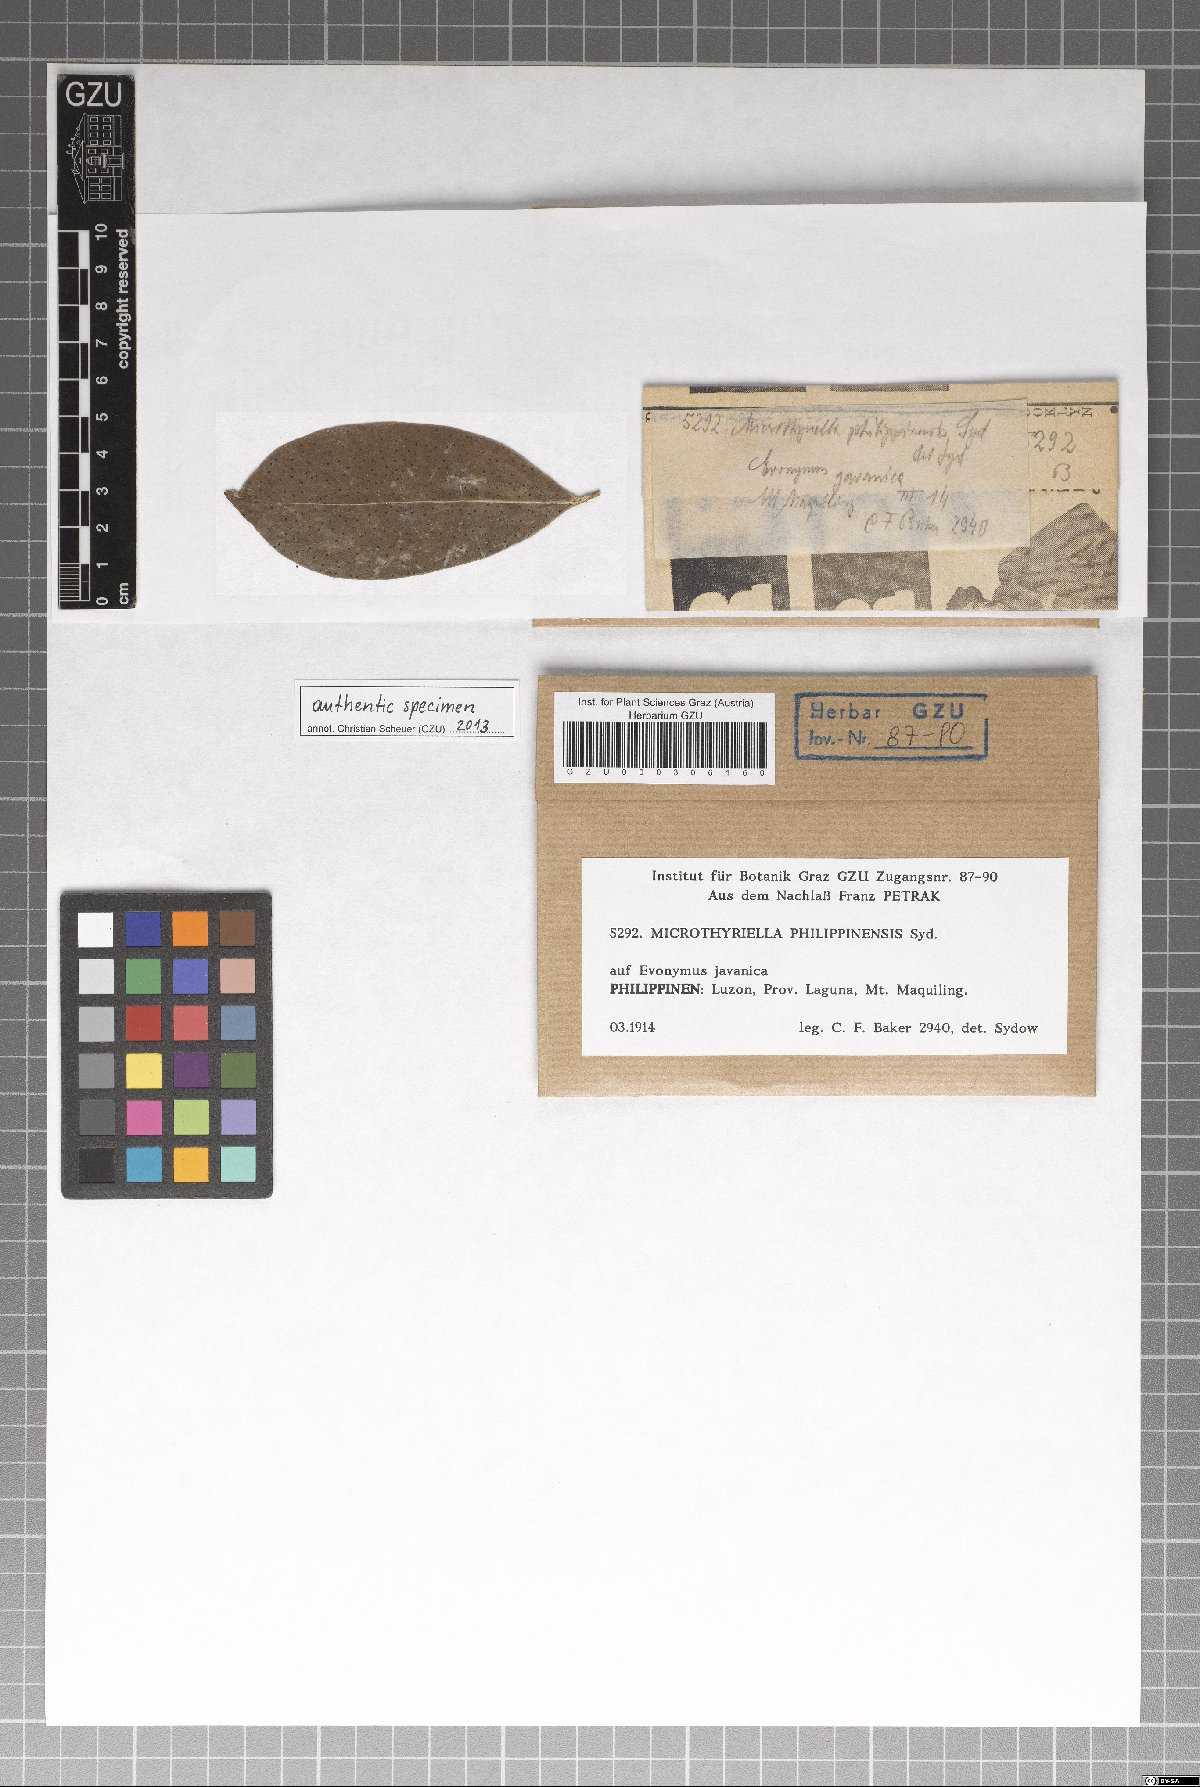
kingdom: Fungi
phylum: Ascomycota
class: Dothideomycetes
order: Mycosphaerellales
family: Schizothyriaceae
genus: Microthyriella
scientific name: Microthyriella philippinensis
